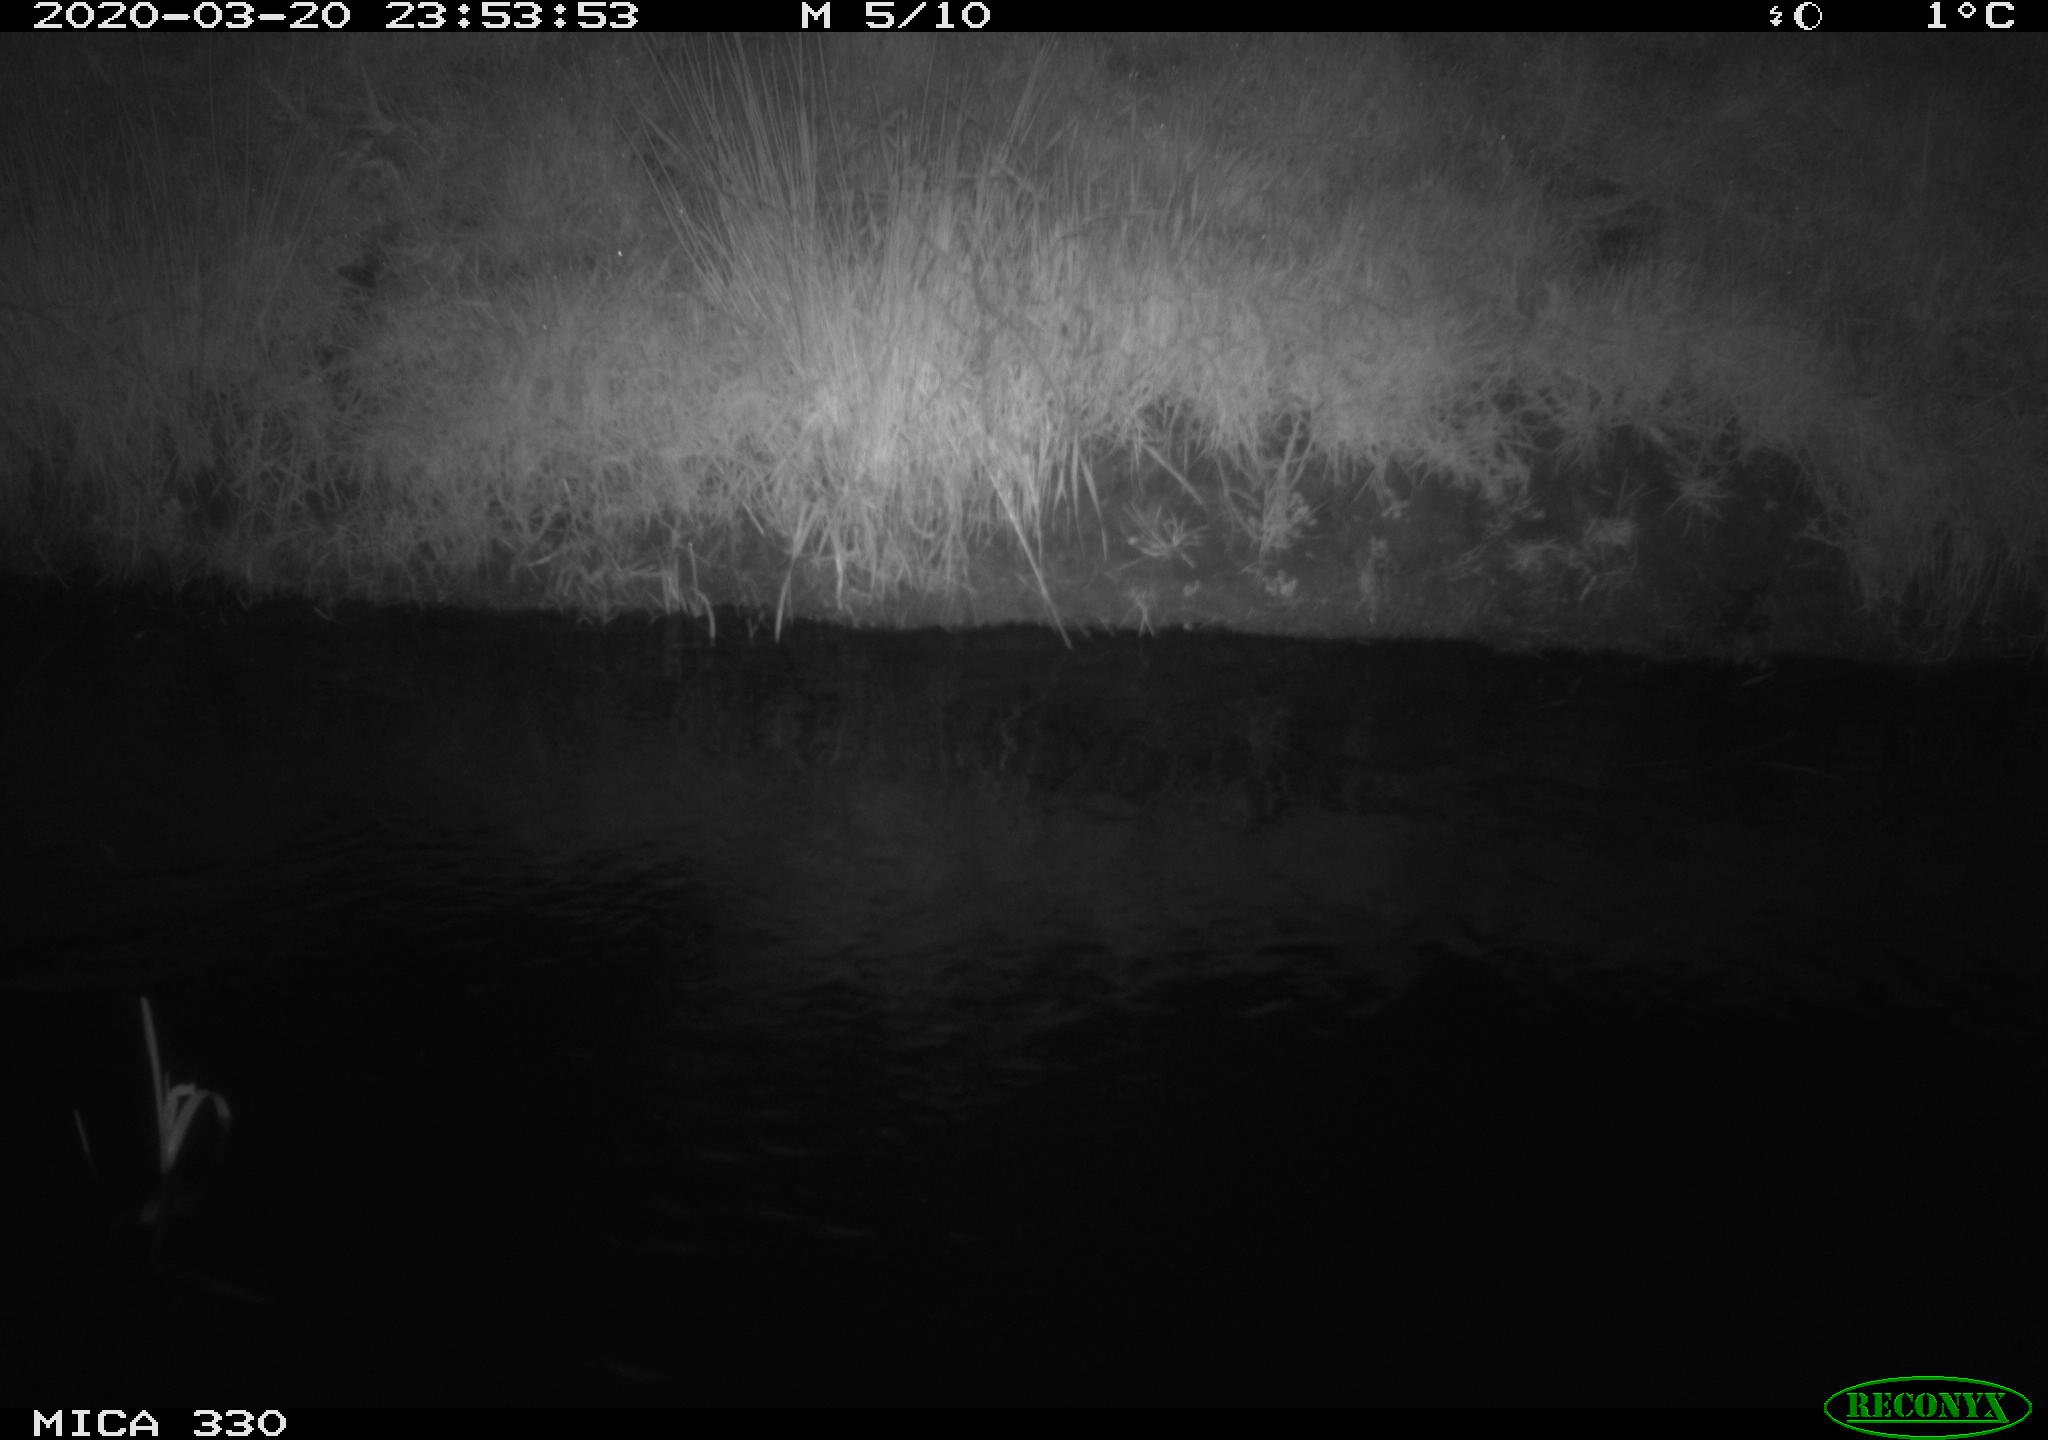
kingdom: Animalia
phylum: Chordata
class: Aves
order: Anseriformes
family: Anatidae
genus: Anas
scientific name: Anas platyrhynchos
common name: Mallard
